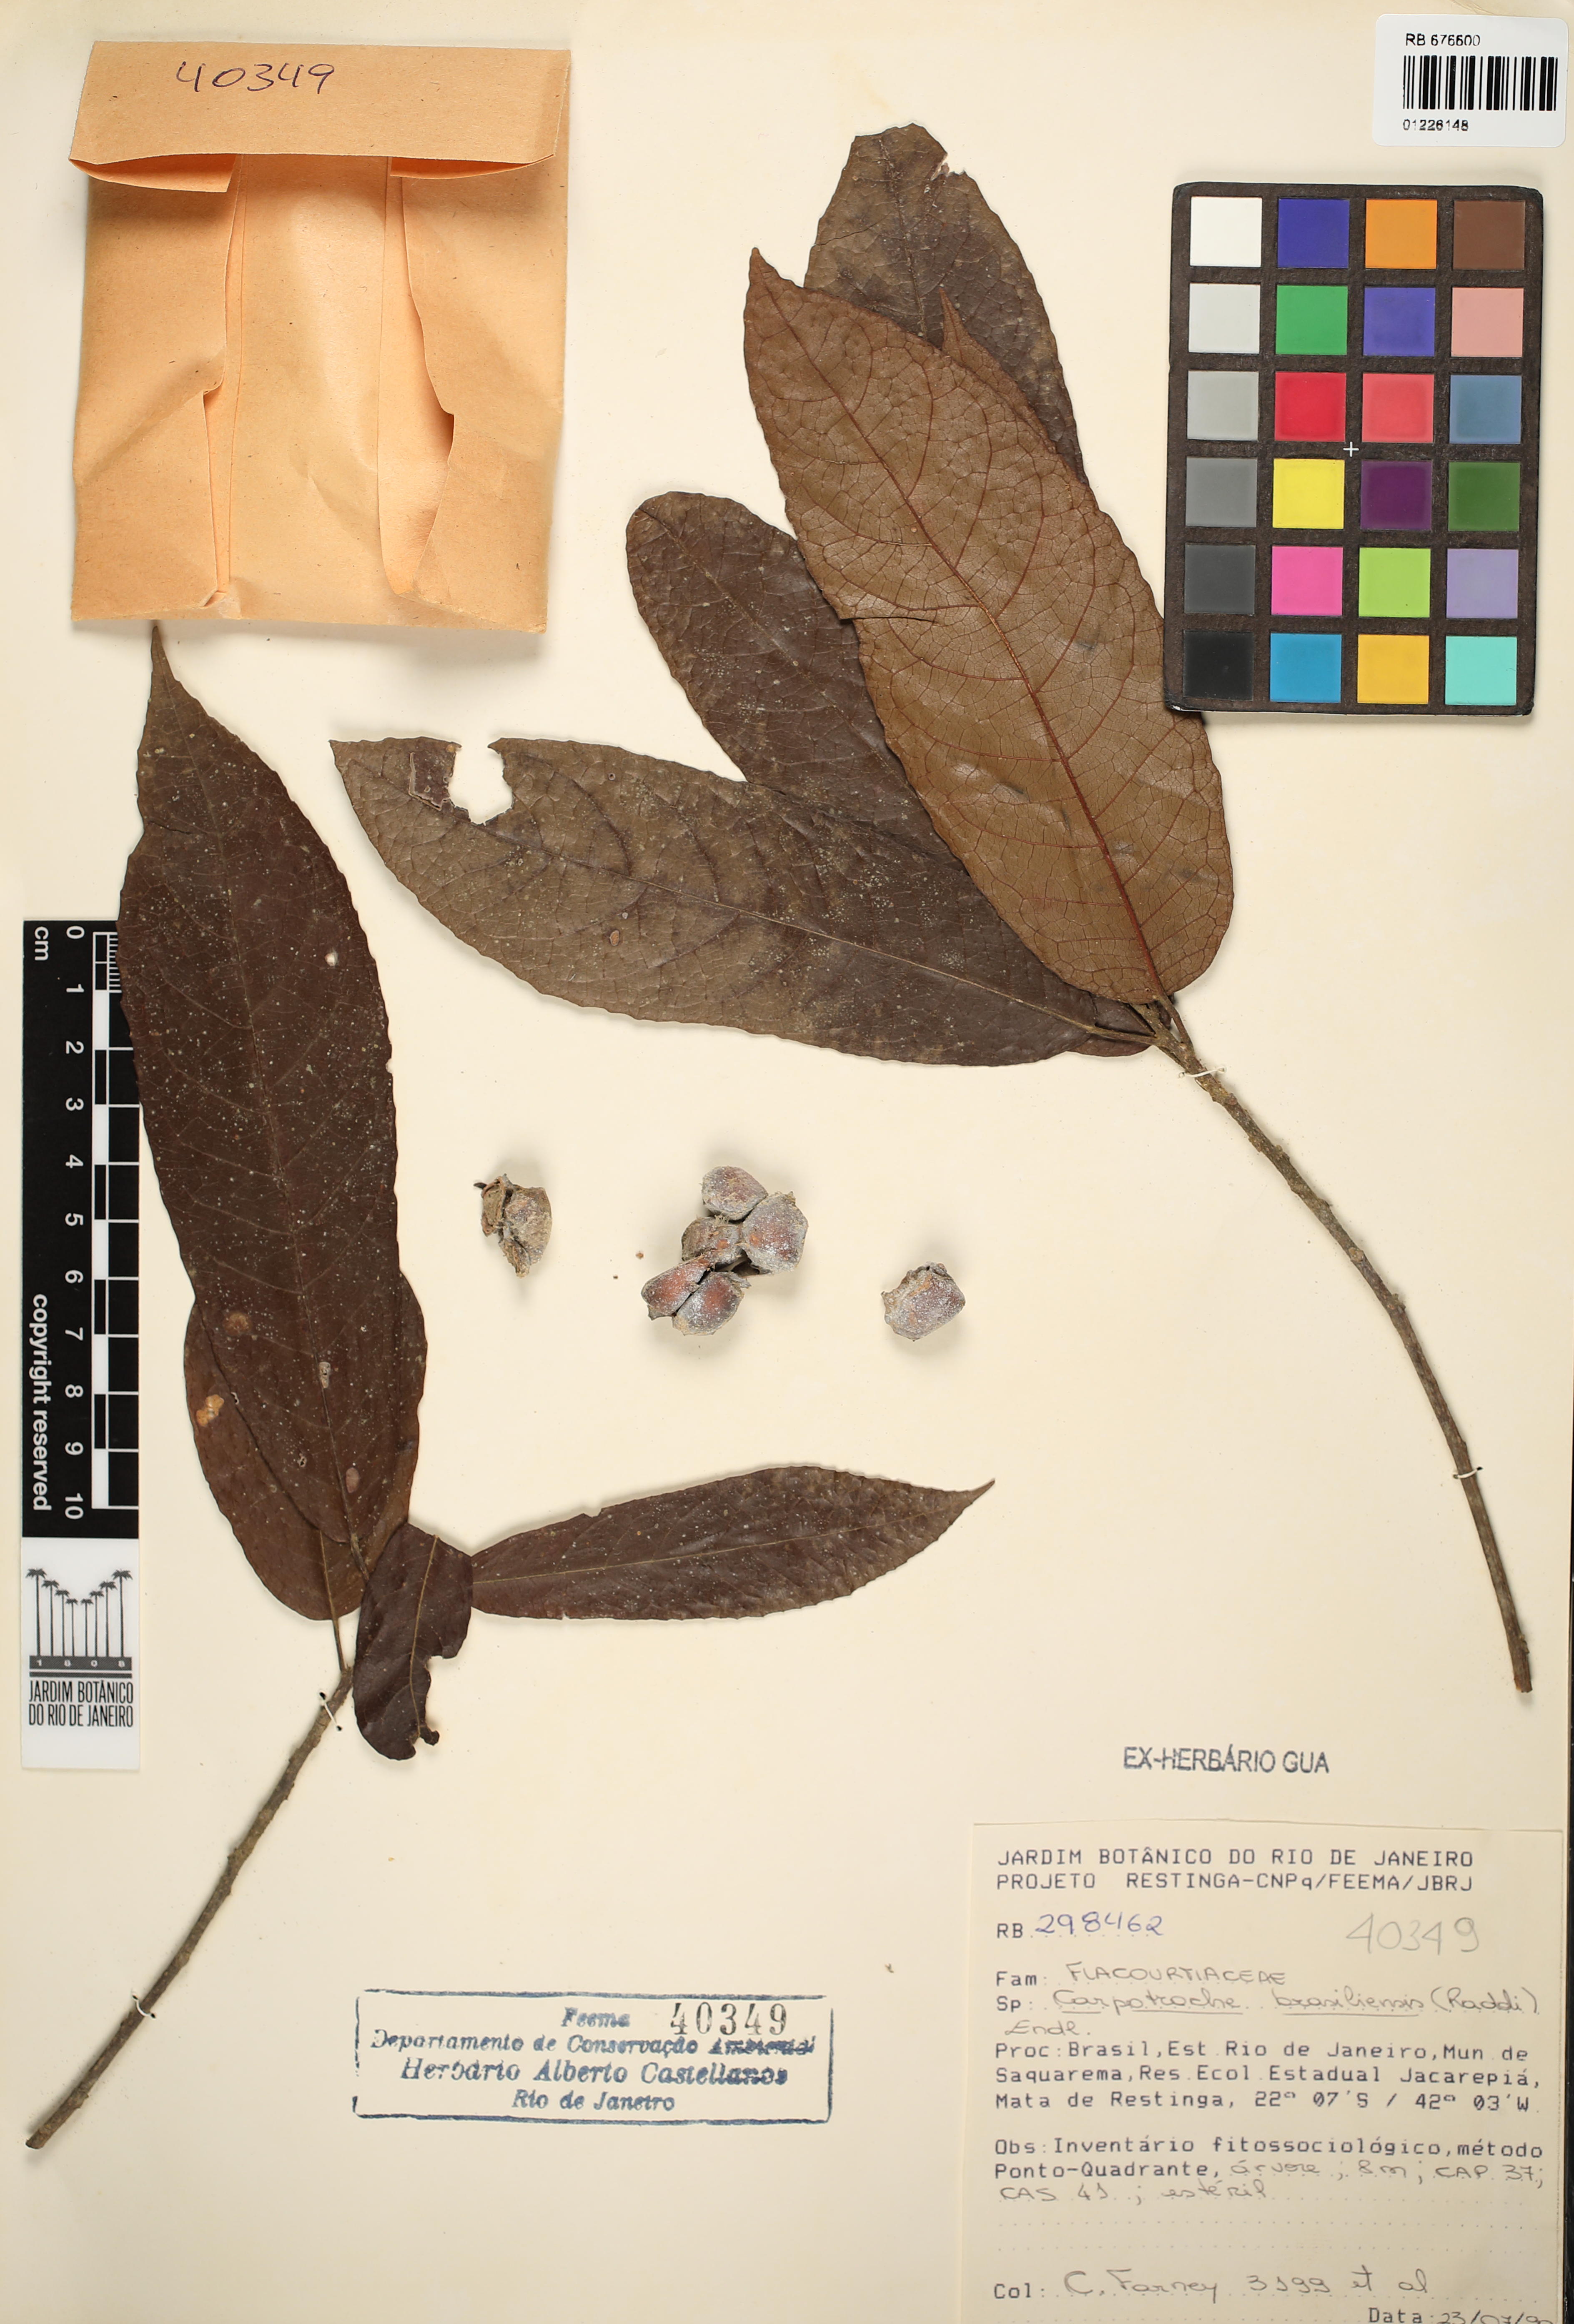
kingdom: Plantae
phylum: Tracheophyta
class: Magnoliopsida
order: Malpighiales
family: Achariaceae
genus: Carpotroche
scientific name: Carpotroche brasiliensis
